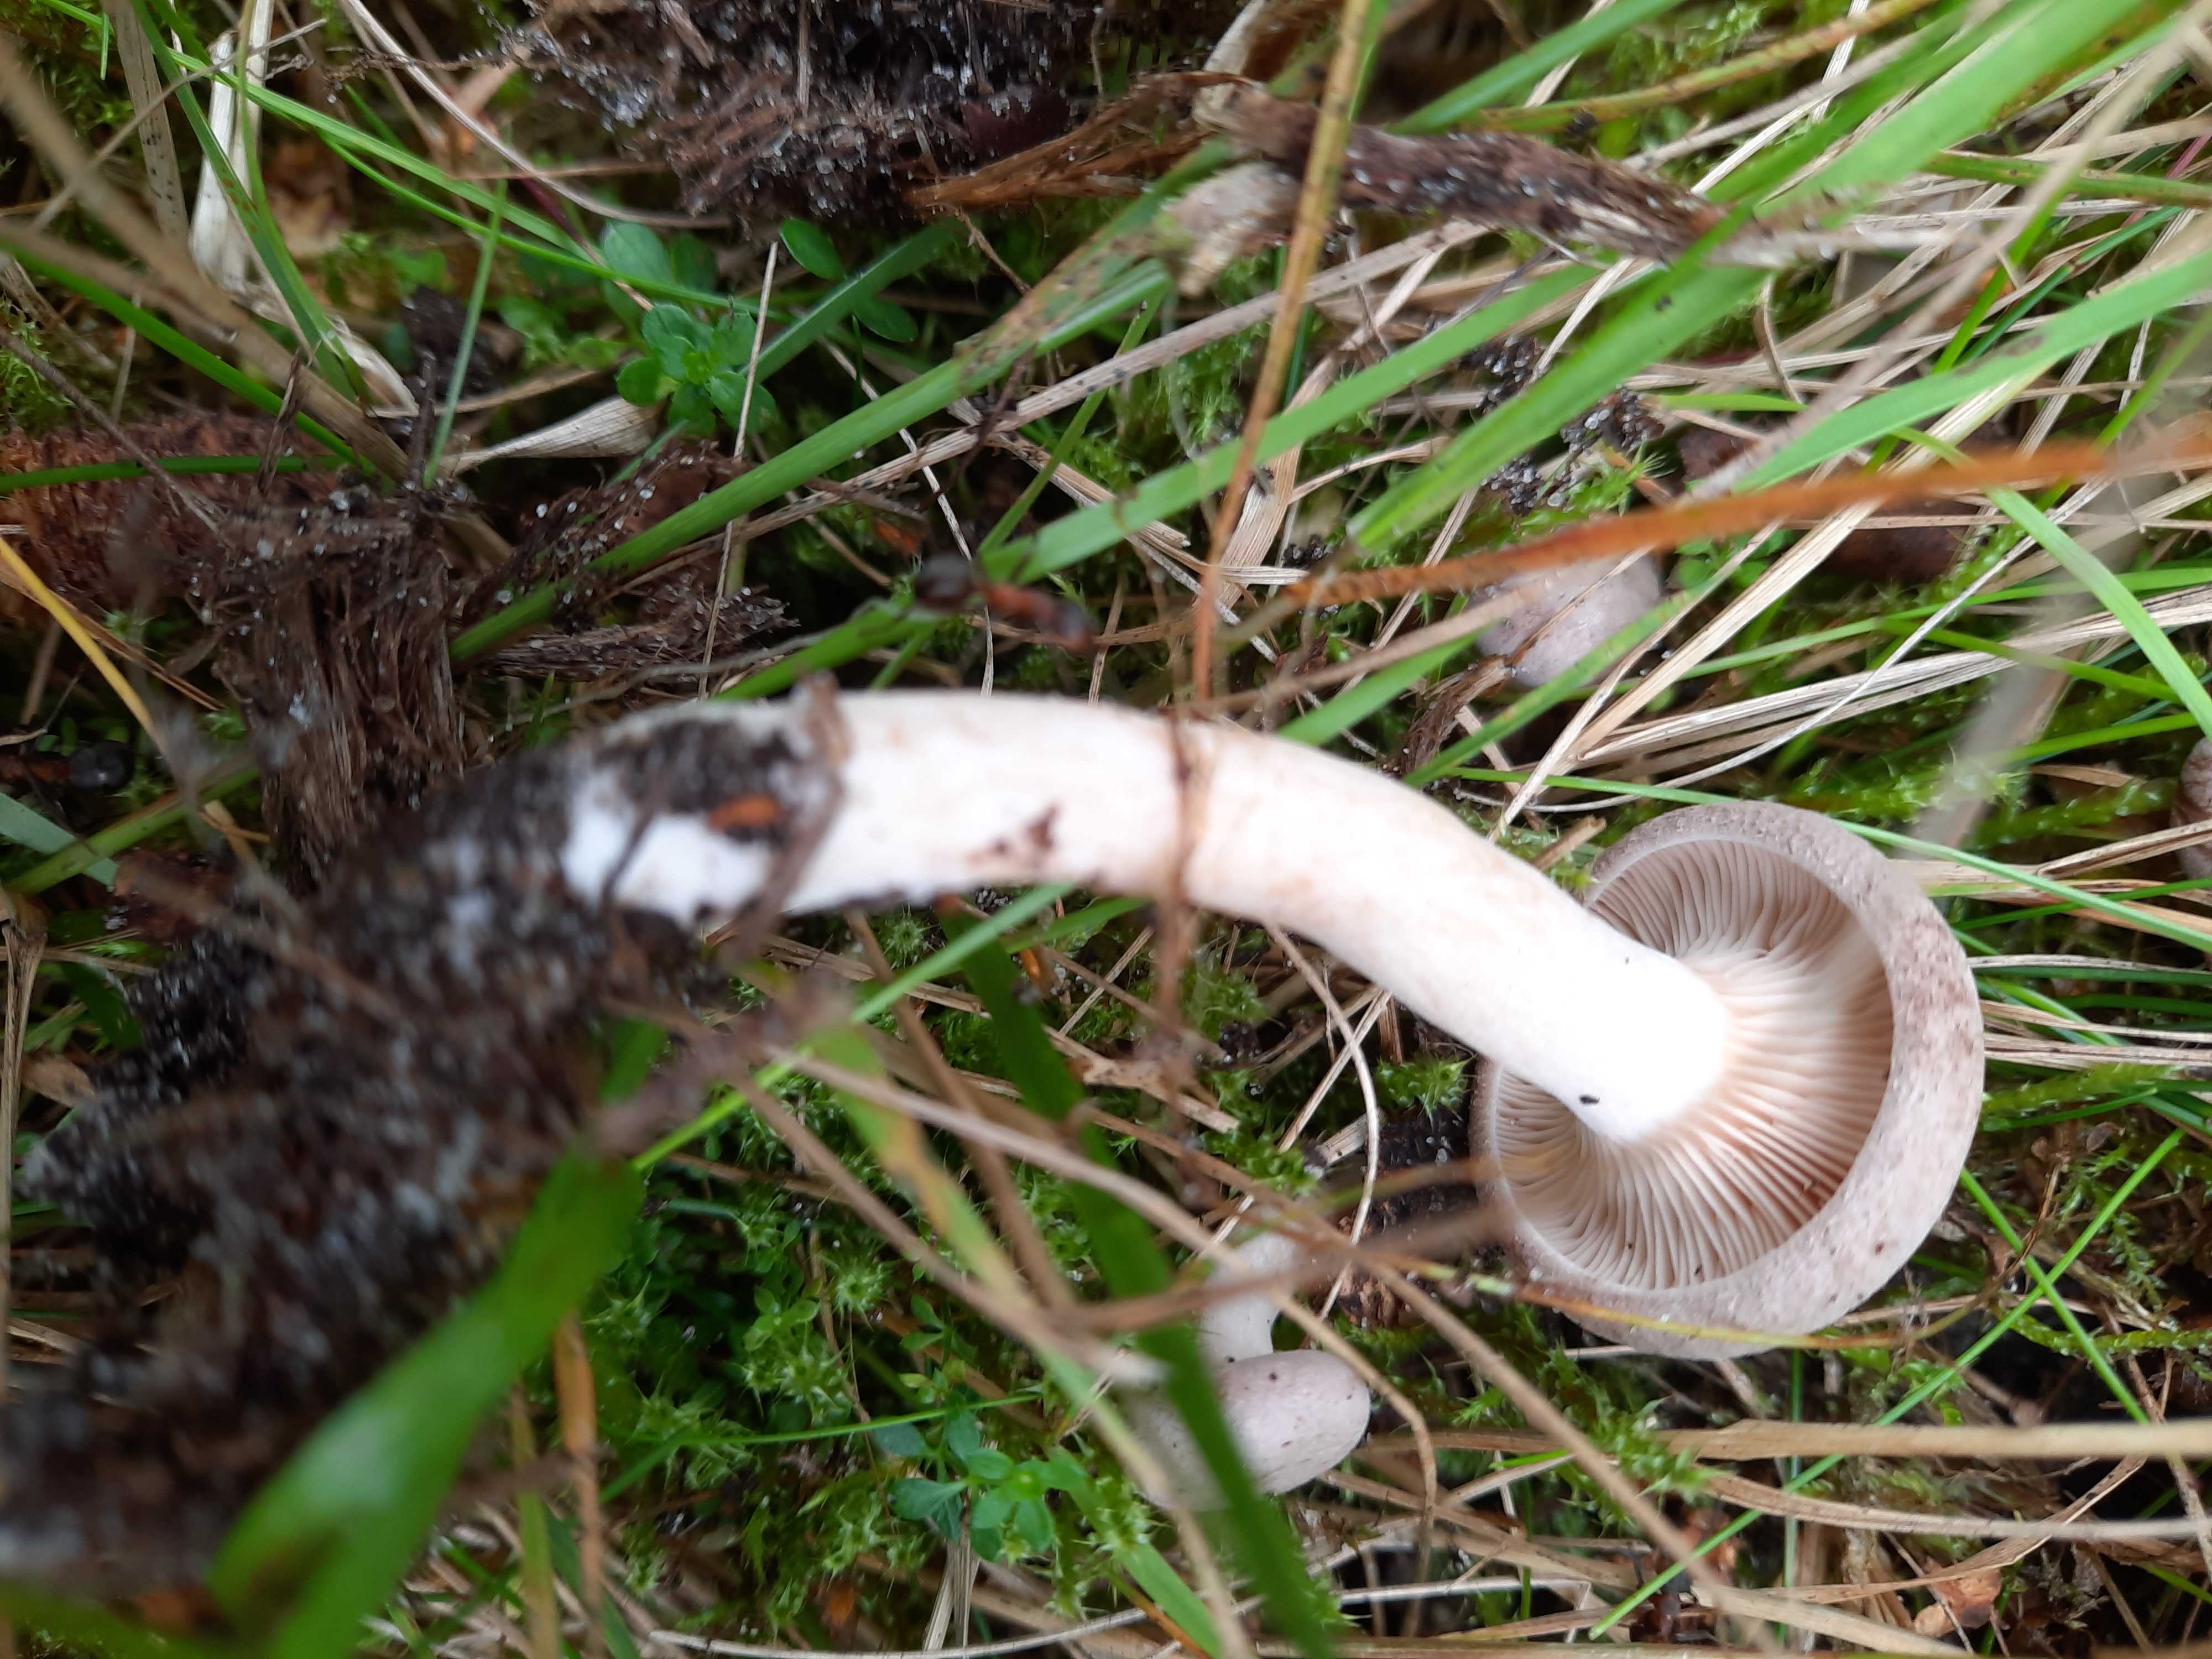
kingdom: Fungi
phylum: Basidiomycota
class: Agaricomycetes
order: Russulales
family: Russulaceae
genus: Lactarius
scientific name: Lactarius
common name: mælkehat
